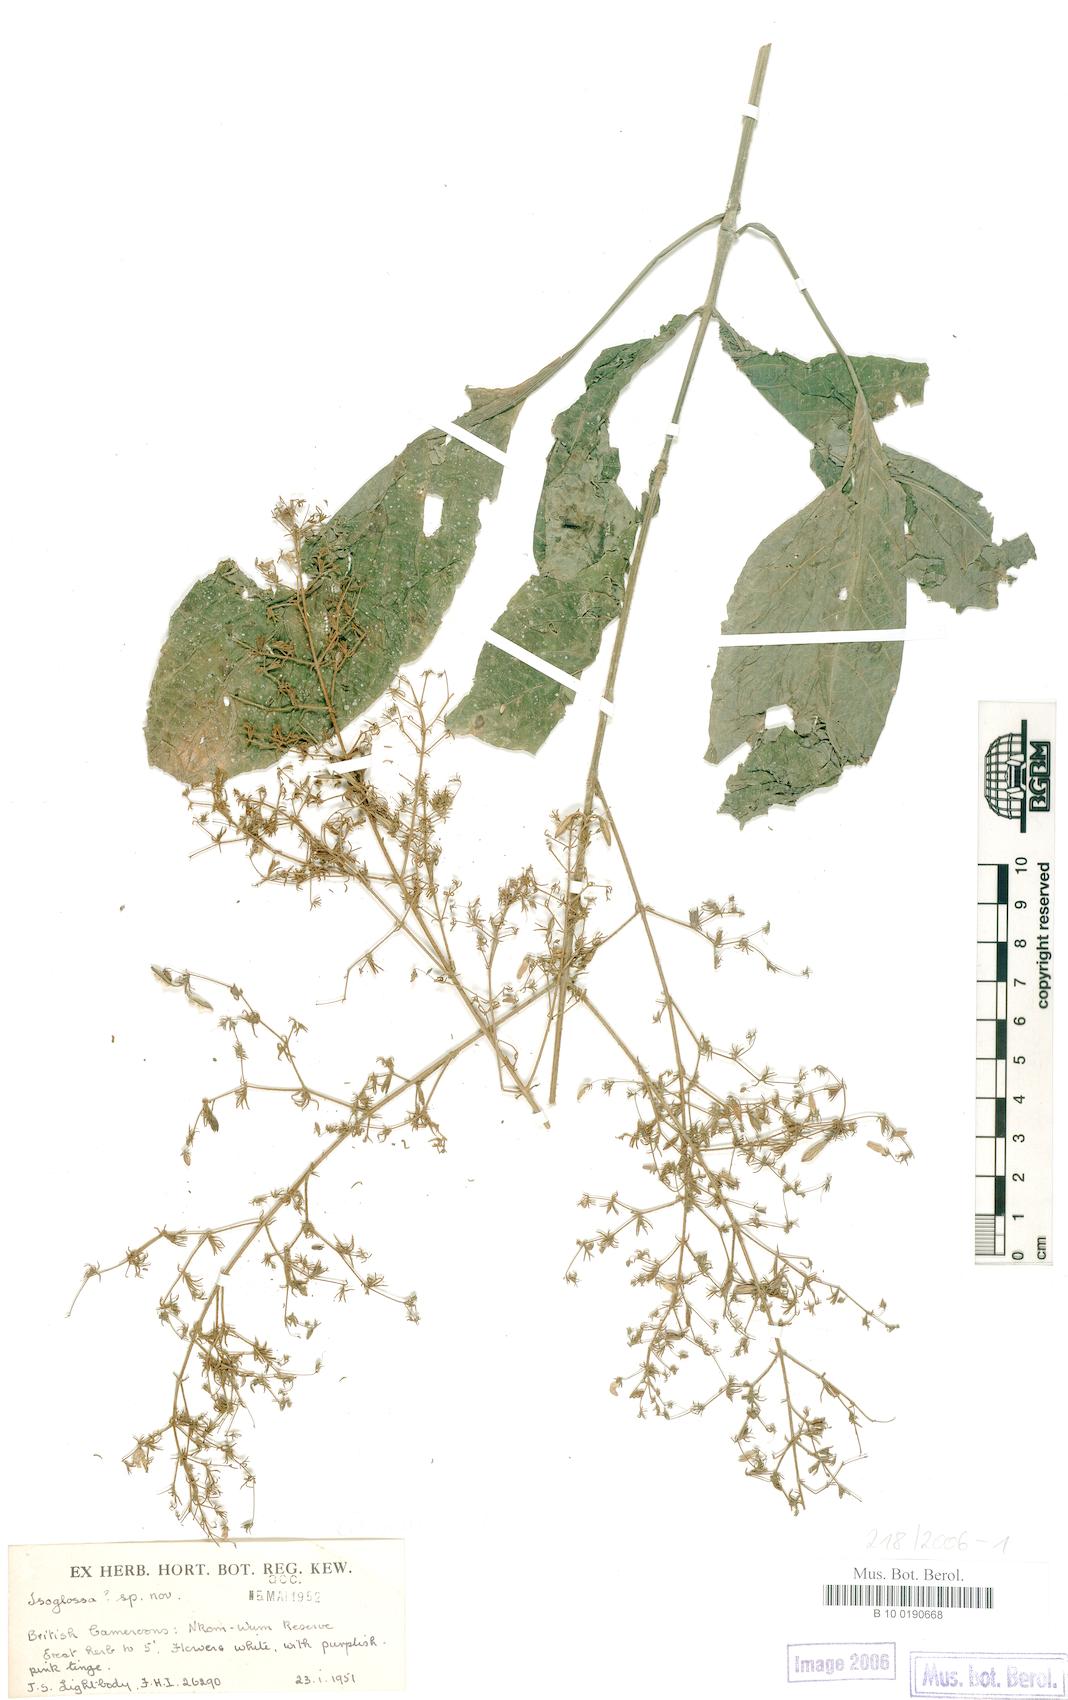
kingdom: Plantae
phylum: Tracheophyta
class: Magnoliopsida
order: Lamiales
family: Acanthaceae
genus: Isoglossa
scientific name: Isoglossa
